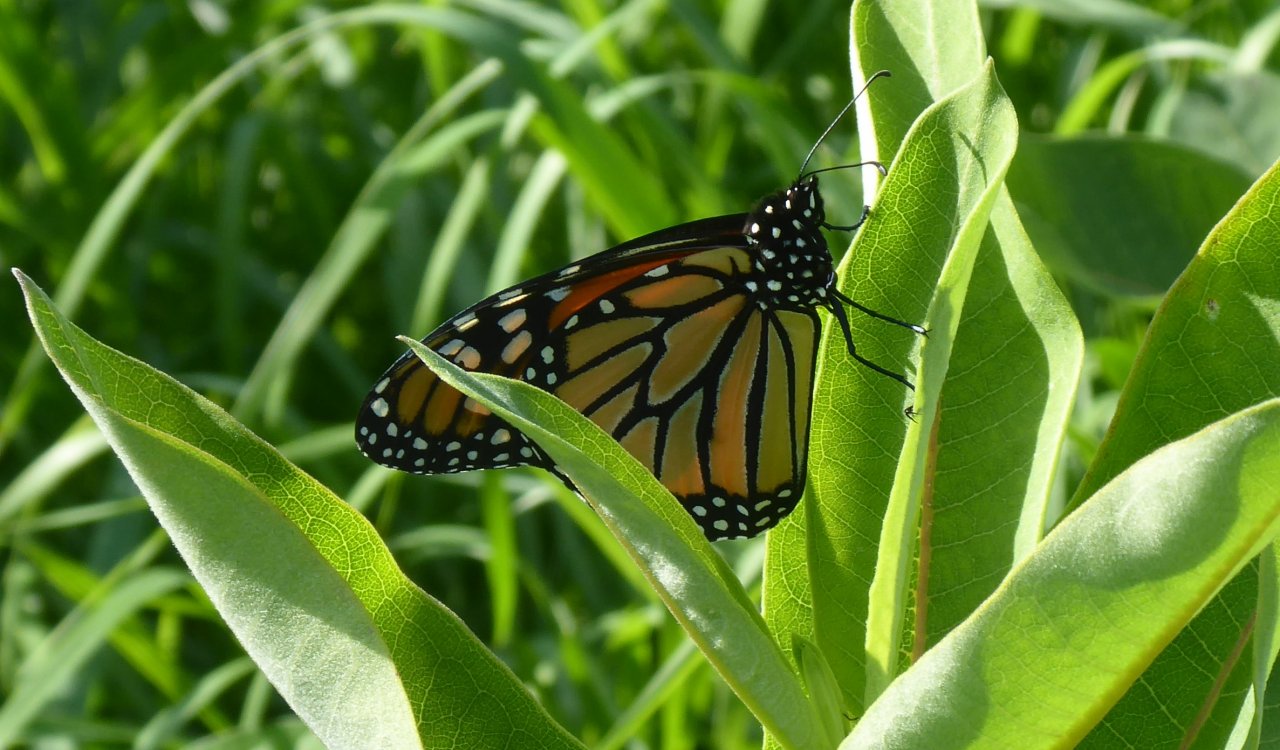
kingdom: Animalia
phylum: Arthropoda
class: Insecta
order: Lepidoptera
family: Nymphalidae
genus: Danaus
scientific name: Danaus plexippus
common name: Monarch
